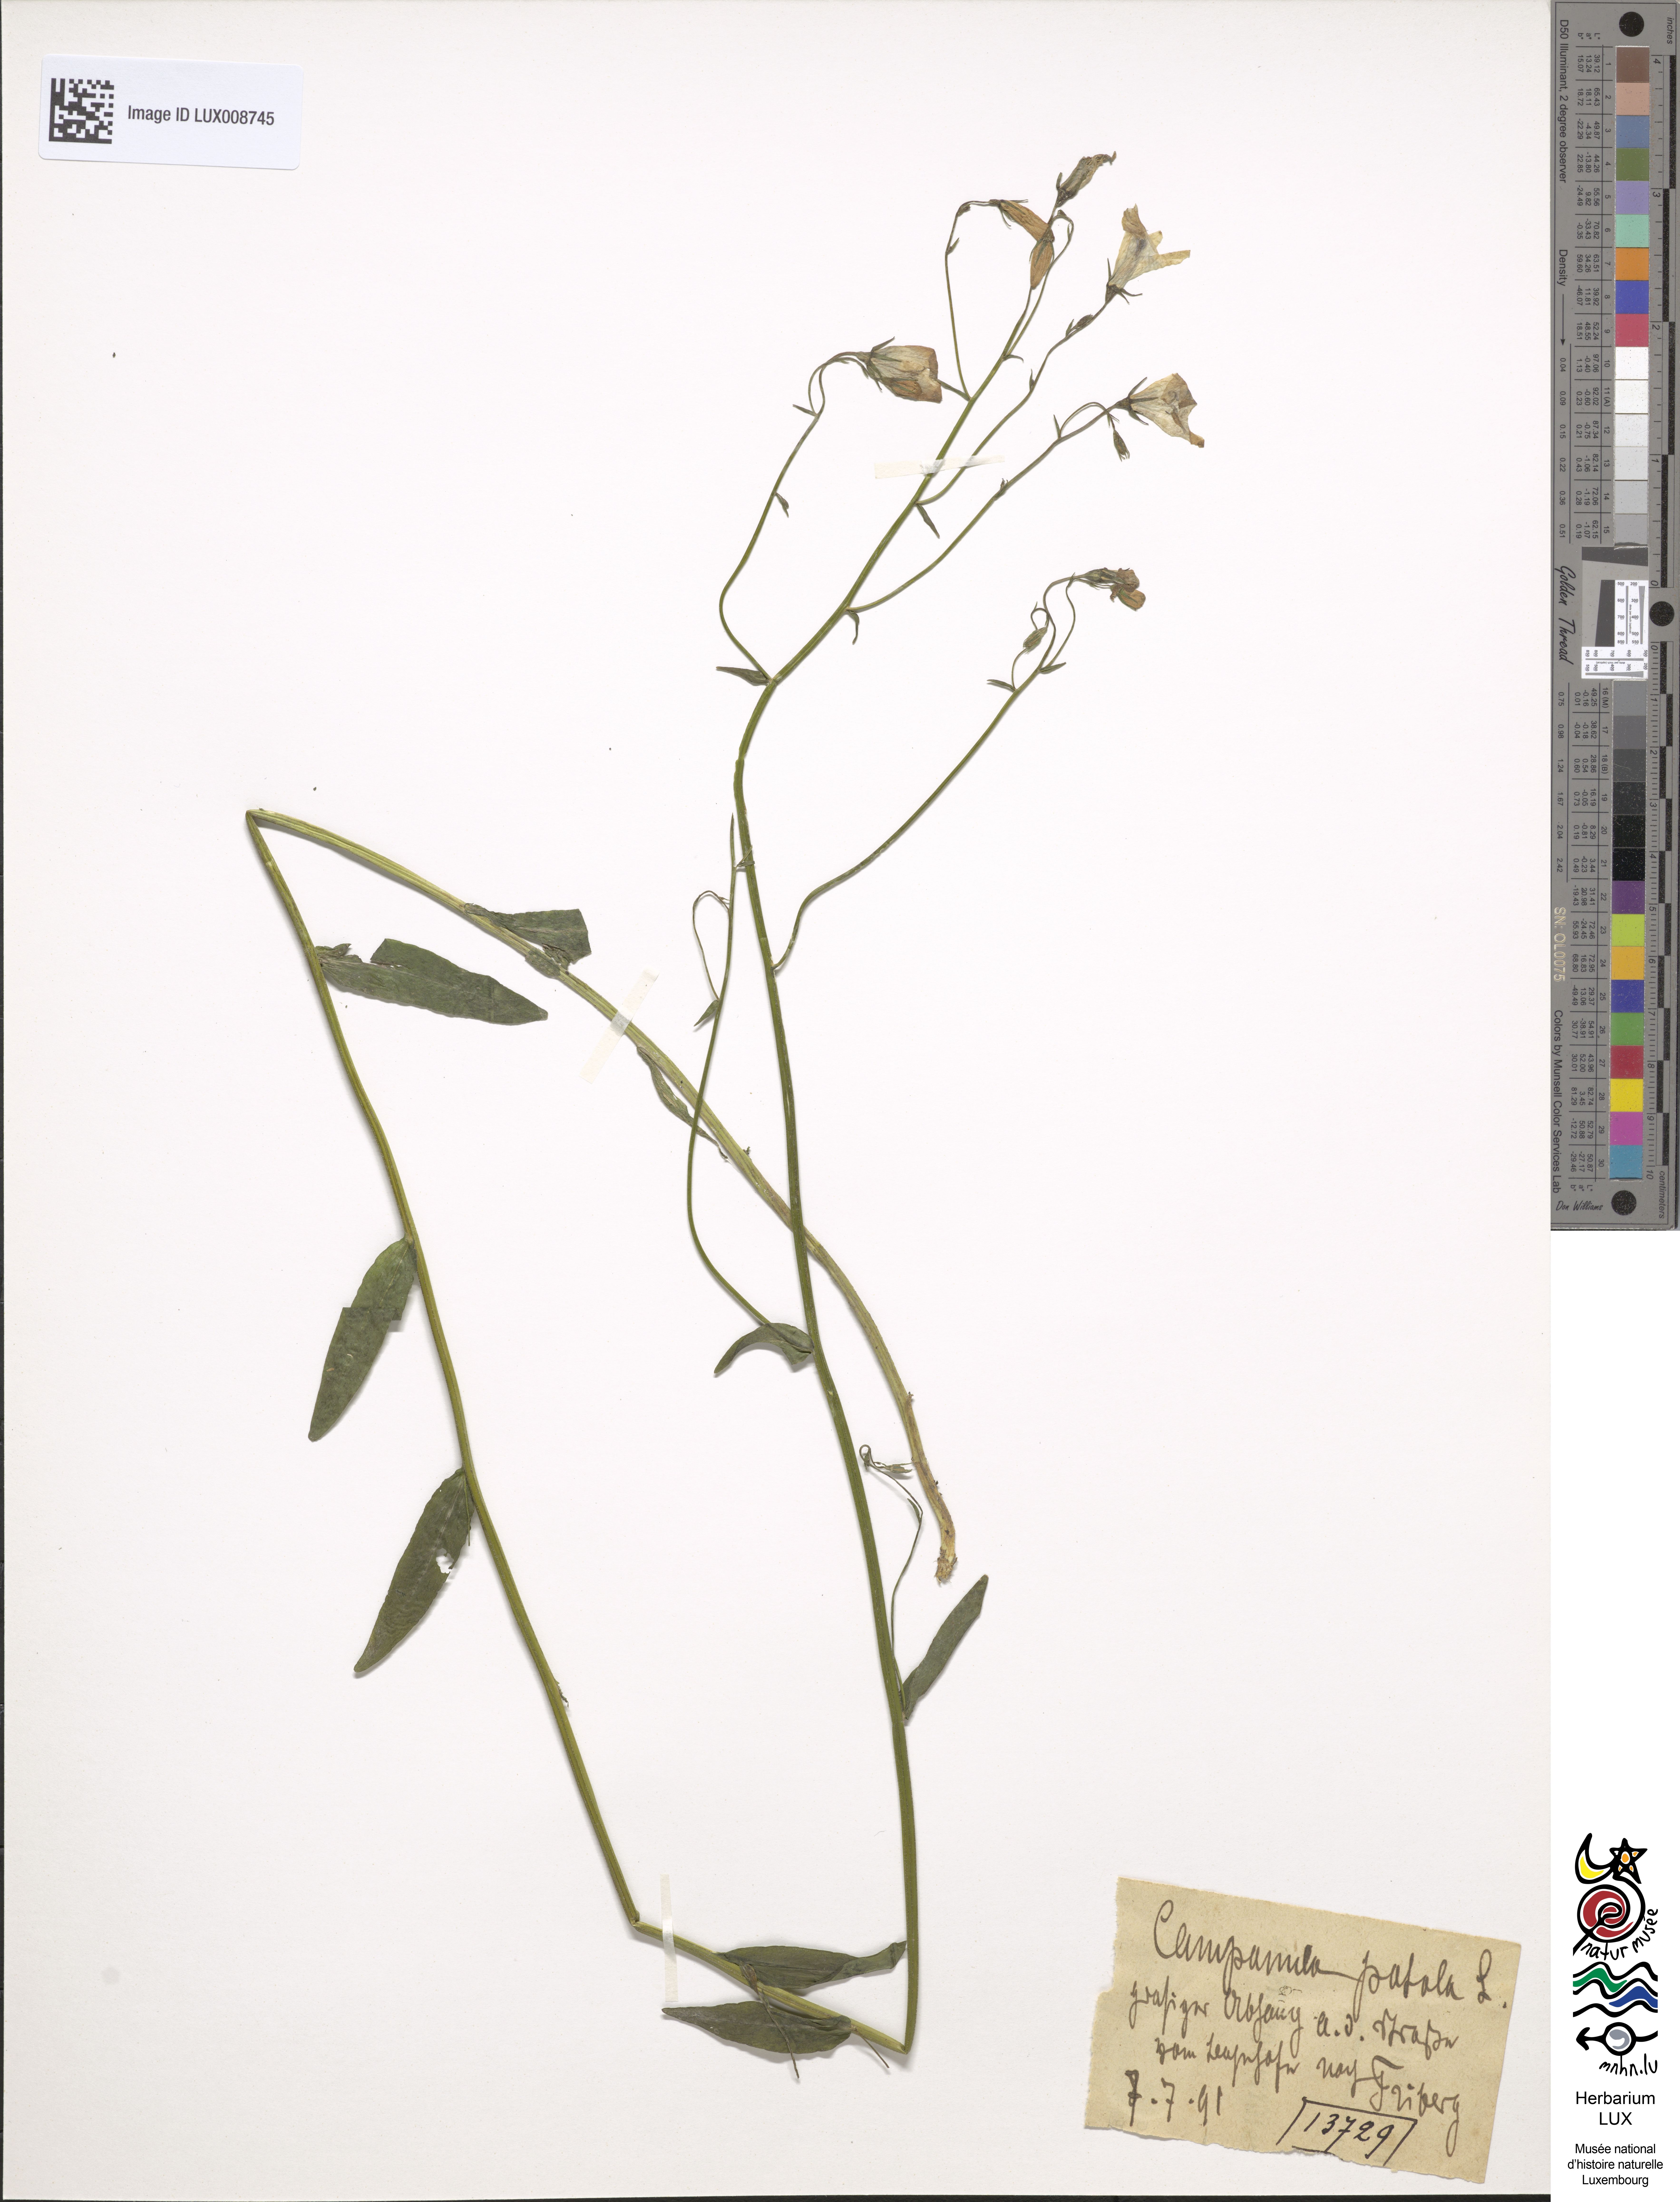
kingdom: Plantae
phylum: Tracheophyta
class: Magnoliopsida
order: Asterales
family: Campanulaceae
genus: Campanula
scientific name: Campanula patula
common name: Spreading bellflower
